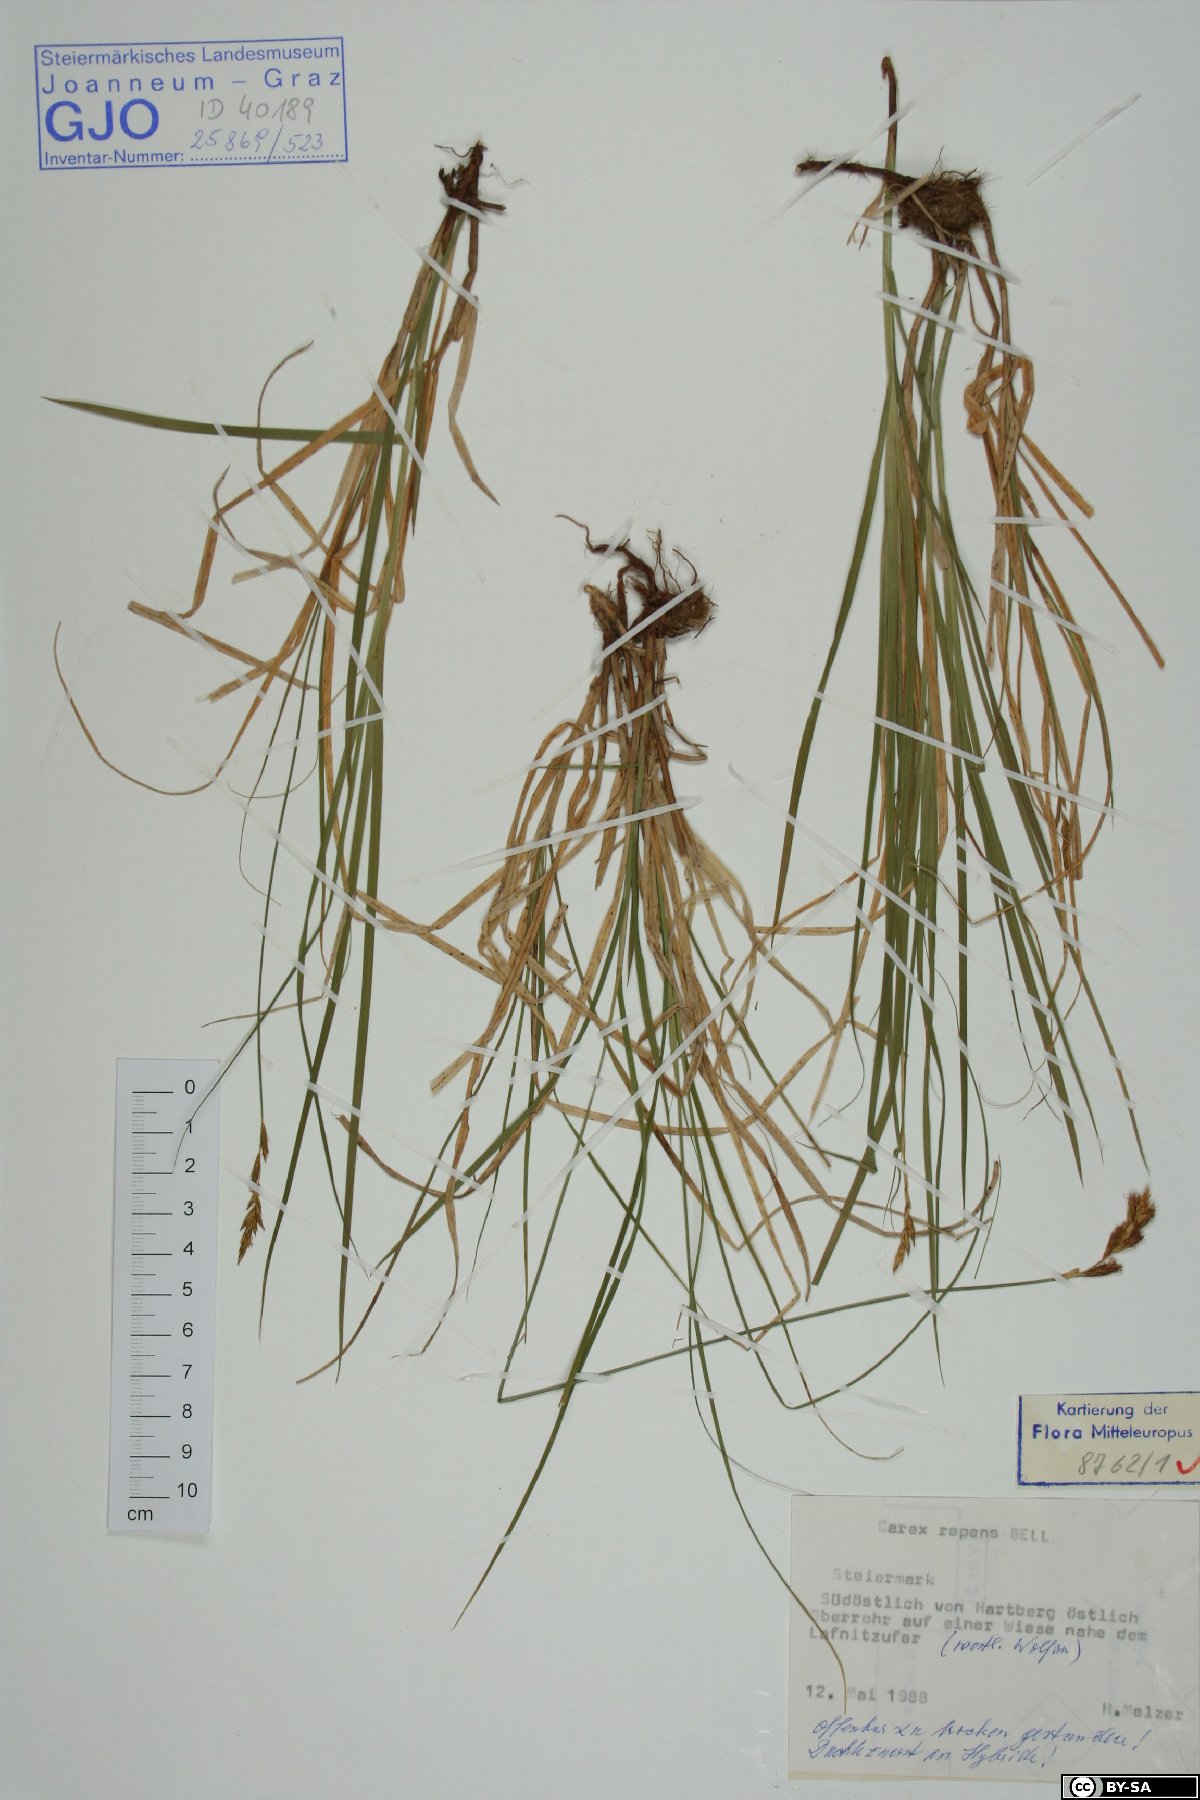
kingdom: Plantae
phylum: Tracheophyta
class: Liliopsida
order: Poales
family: Cyperaceae
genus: Carex
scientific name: Carex repens
